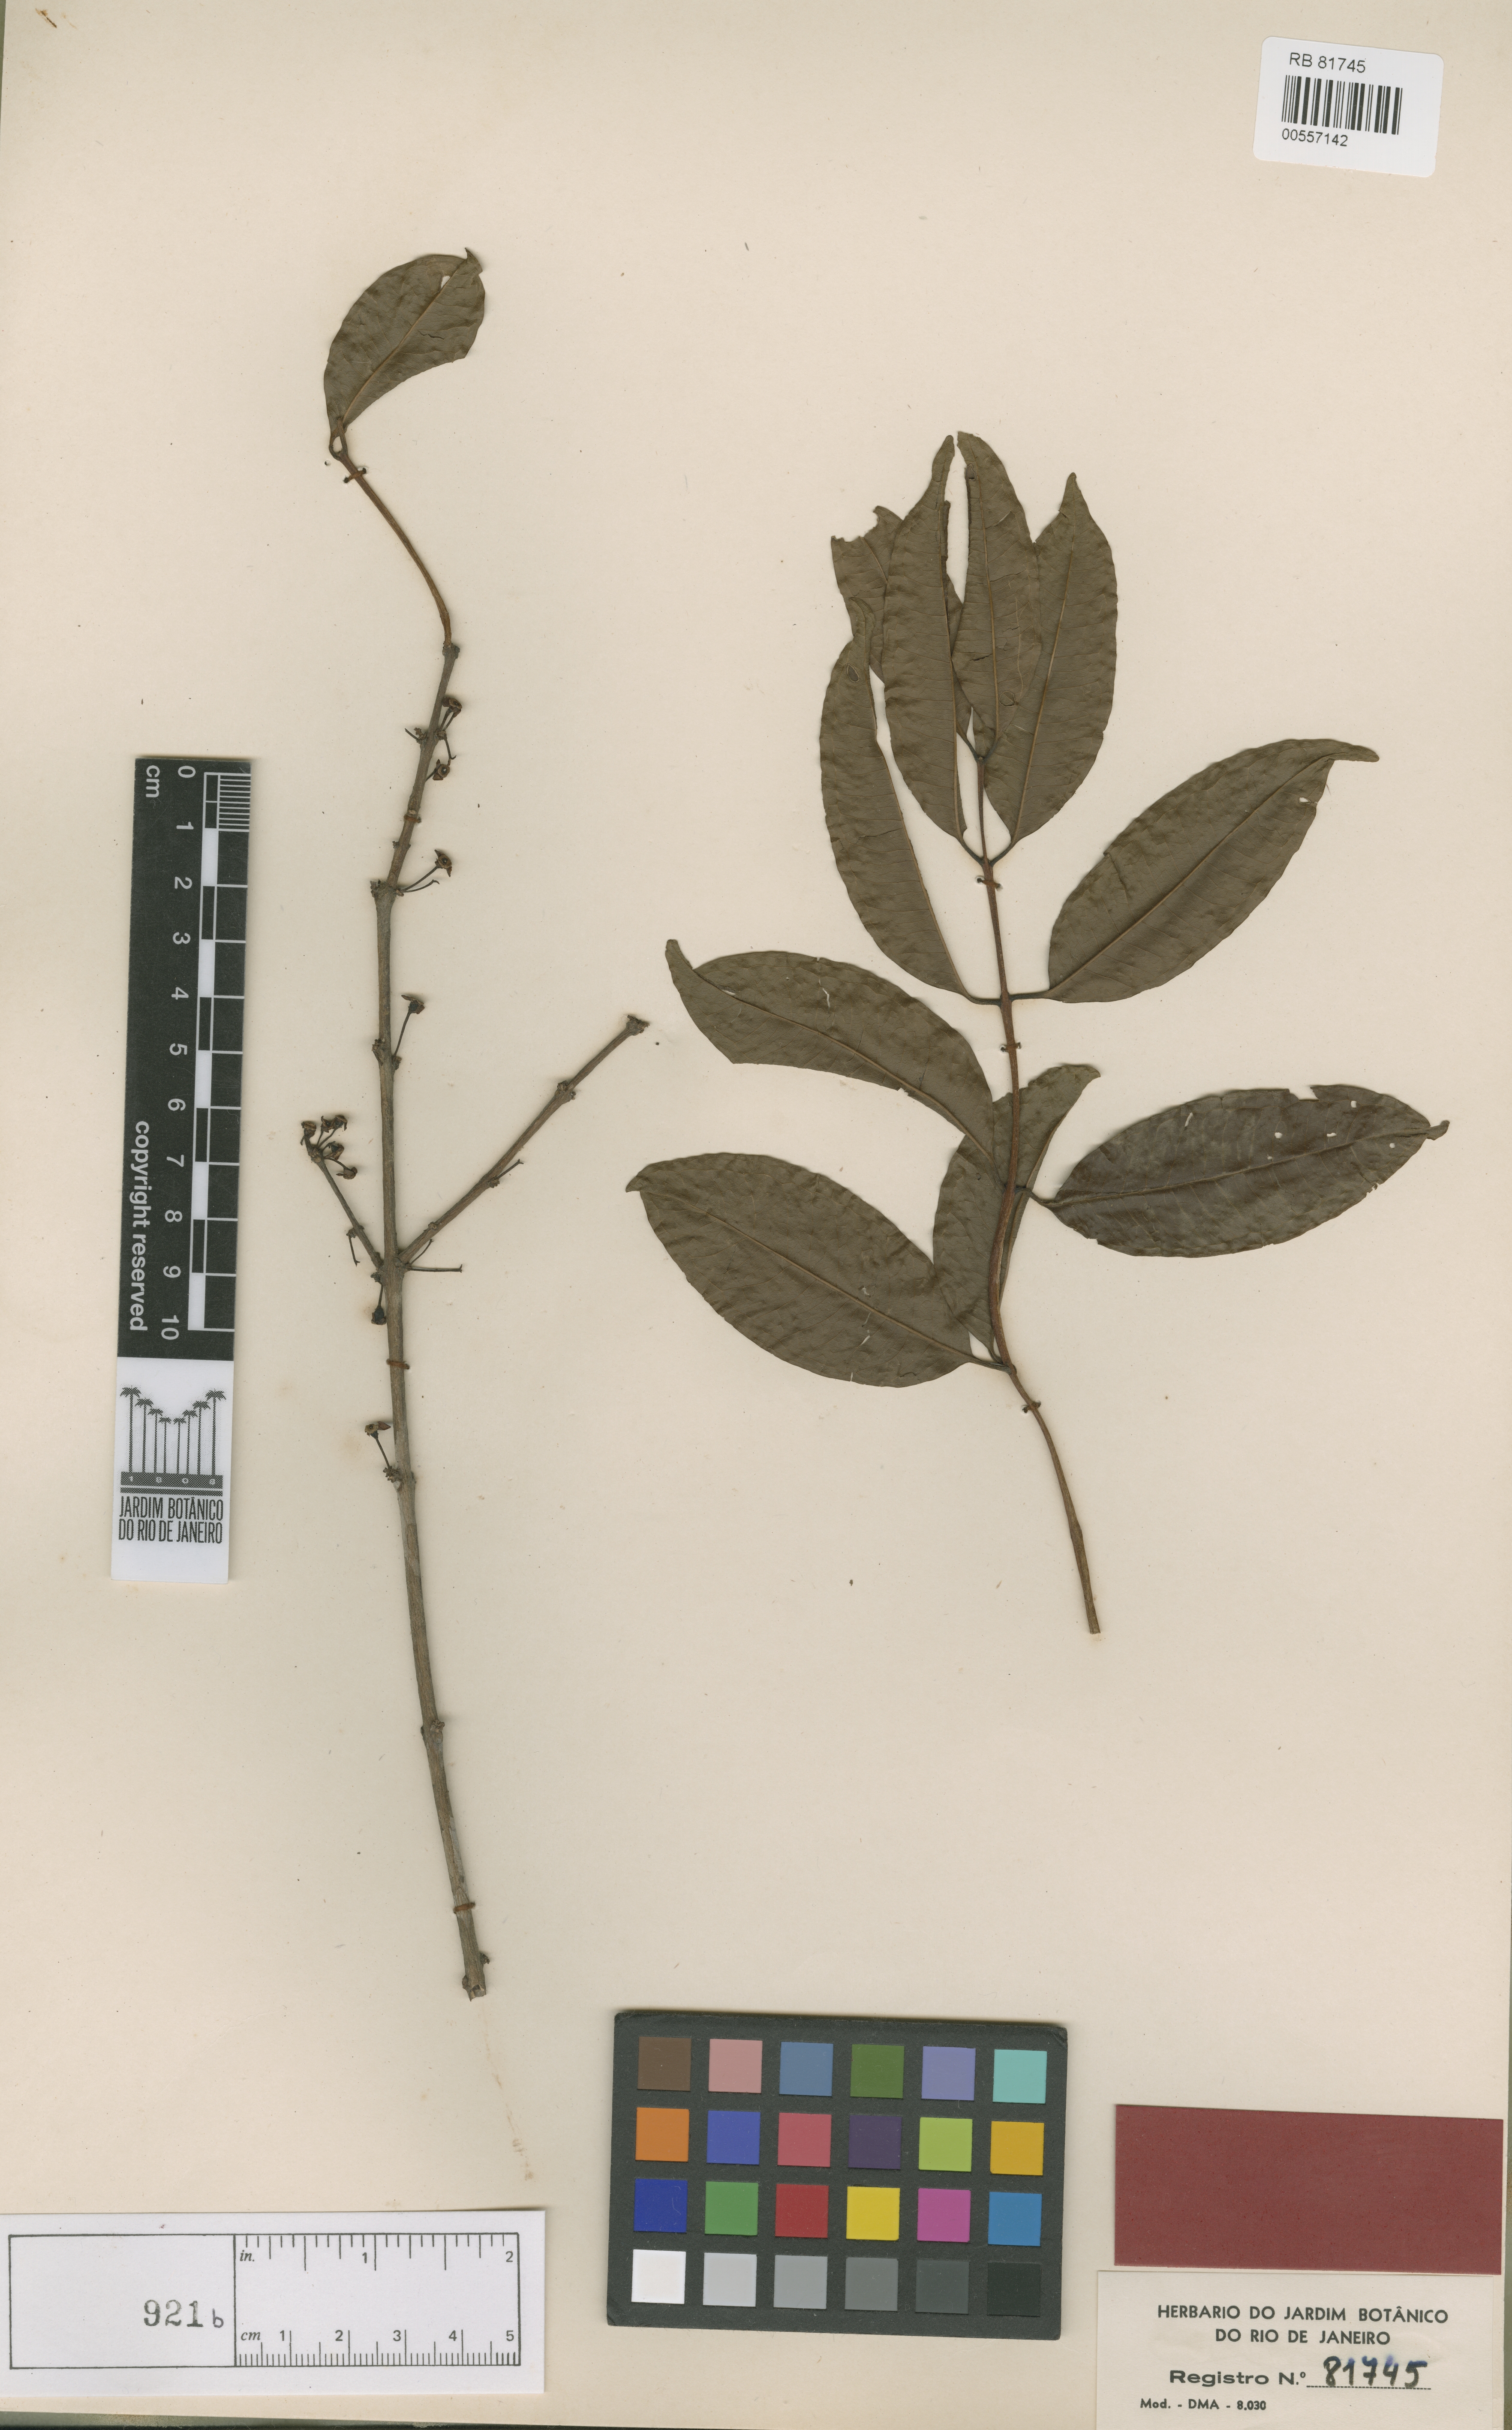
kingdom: Plantae
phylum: Tracheophyta
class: Magnoliopsida
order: Myrtales
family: Myrtaceae
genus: Eugenia
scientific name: Eugenia quadrijuga
